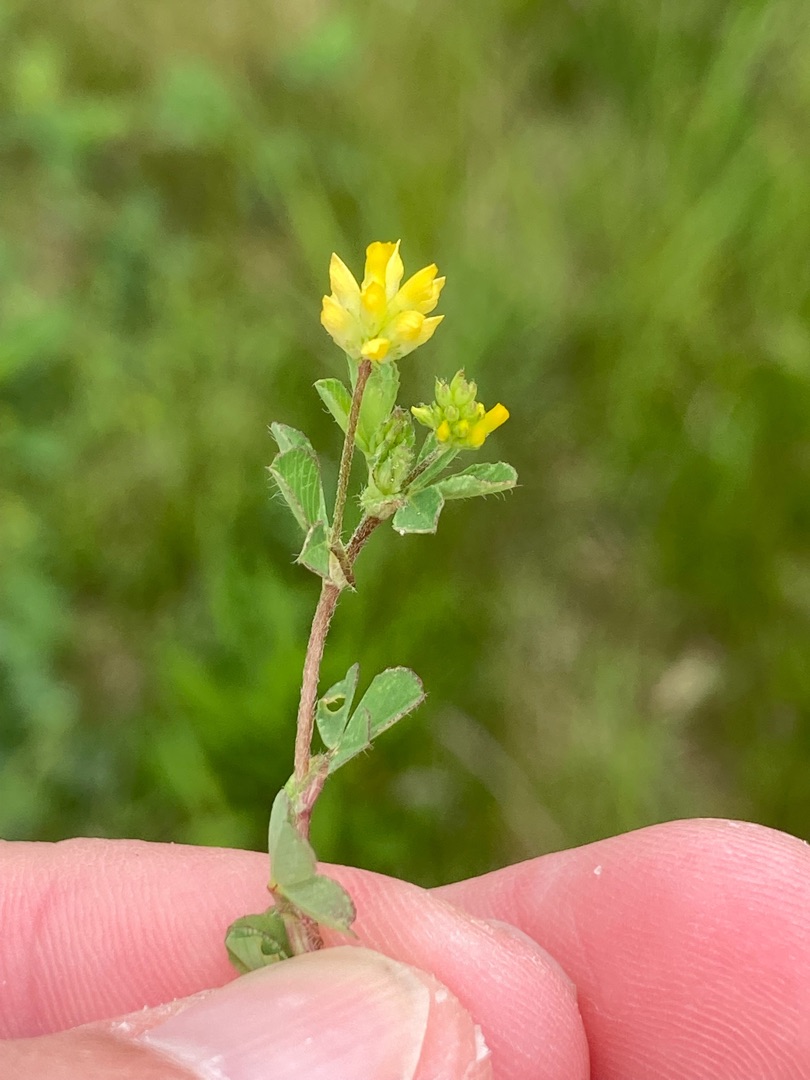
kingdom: Plantae
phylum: Tracheophyta
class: Magnoliopsida
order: Fabales
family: Fabaceae
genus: Trifolium
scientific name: Trifolium dubium
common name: Fin kløver
